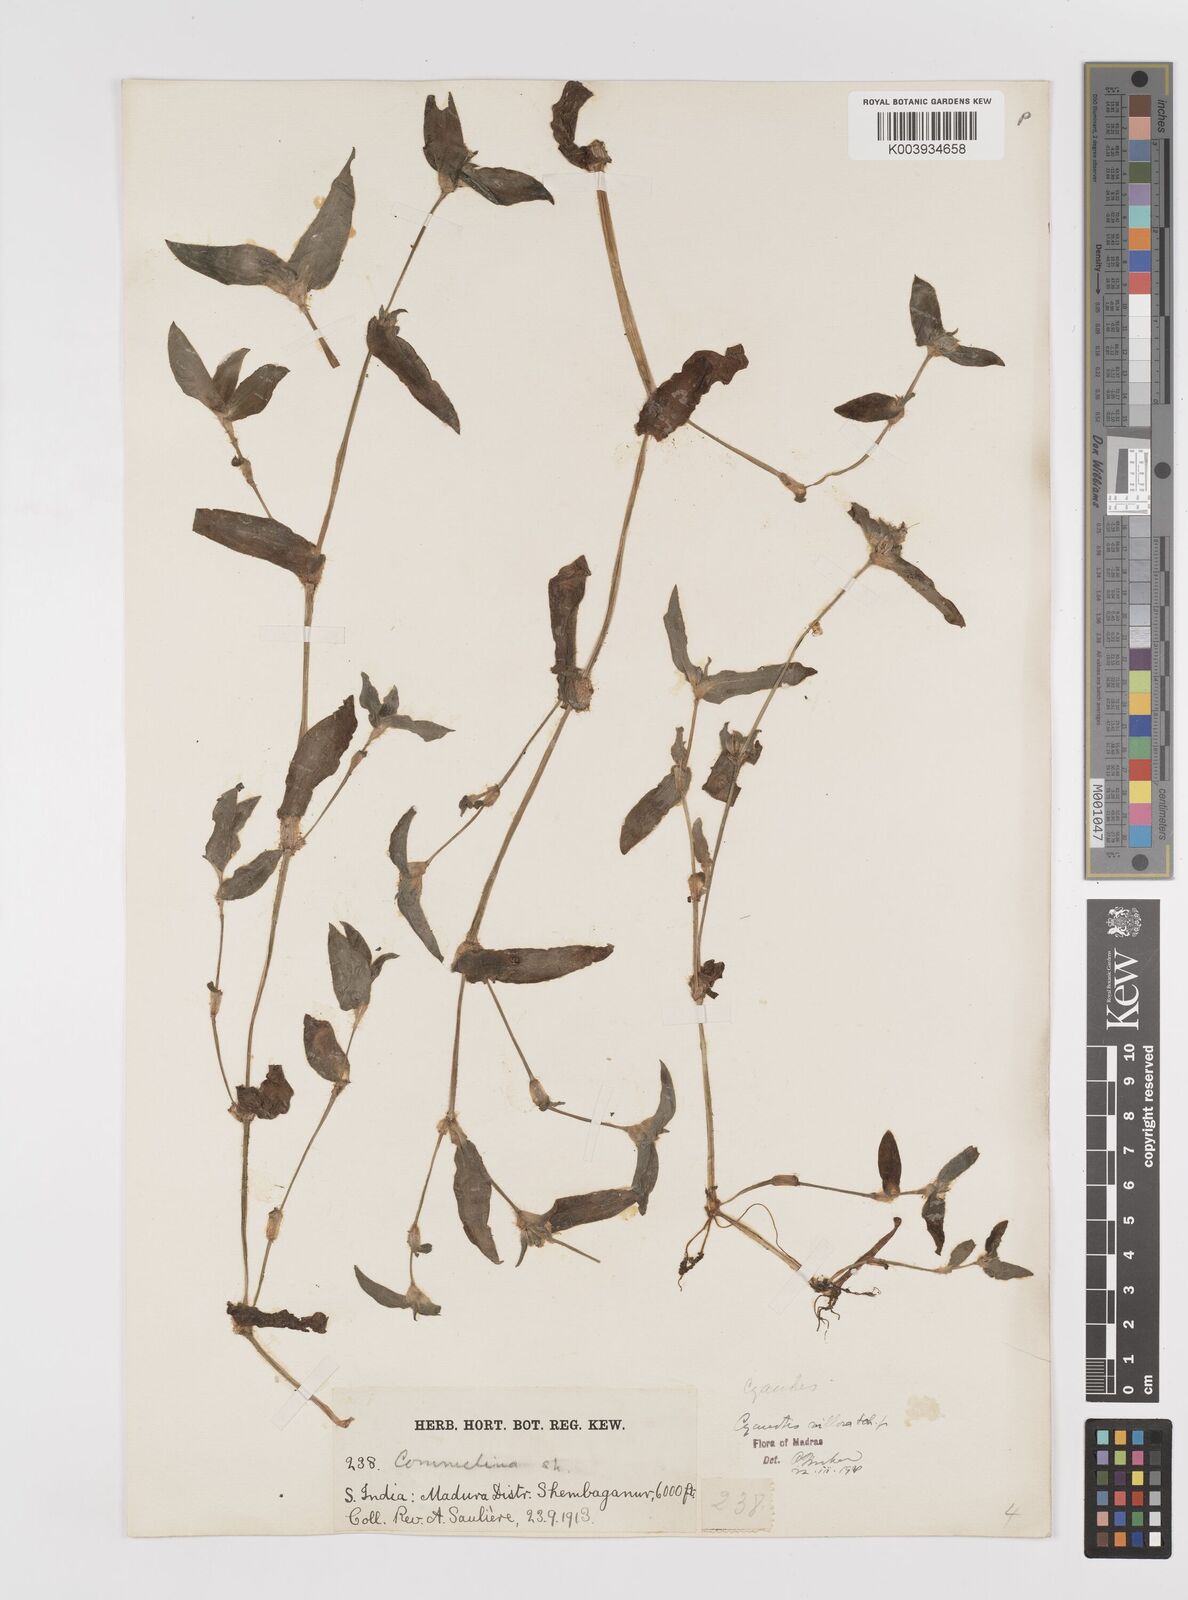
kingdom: Plantae
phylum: Tracheophyta
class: Liliopsida
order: Commelinales
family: Commelinaceae
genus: Cyanotis
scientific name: Cyanotis villosa
